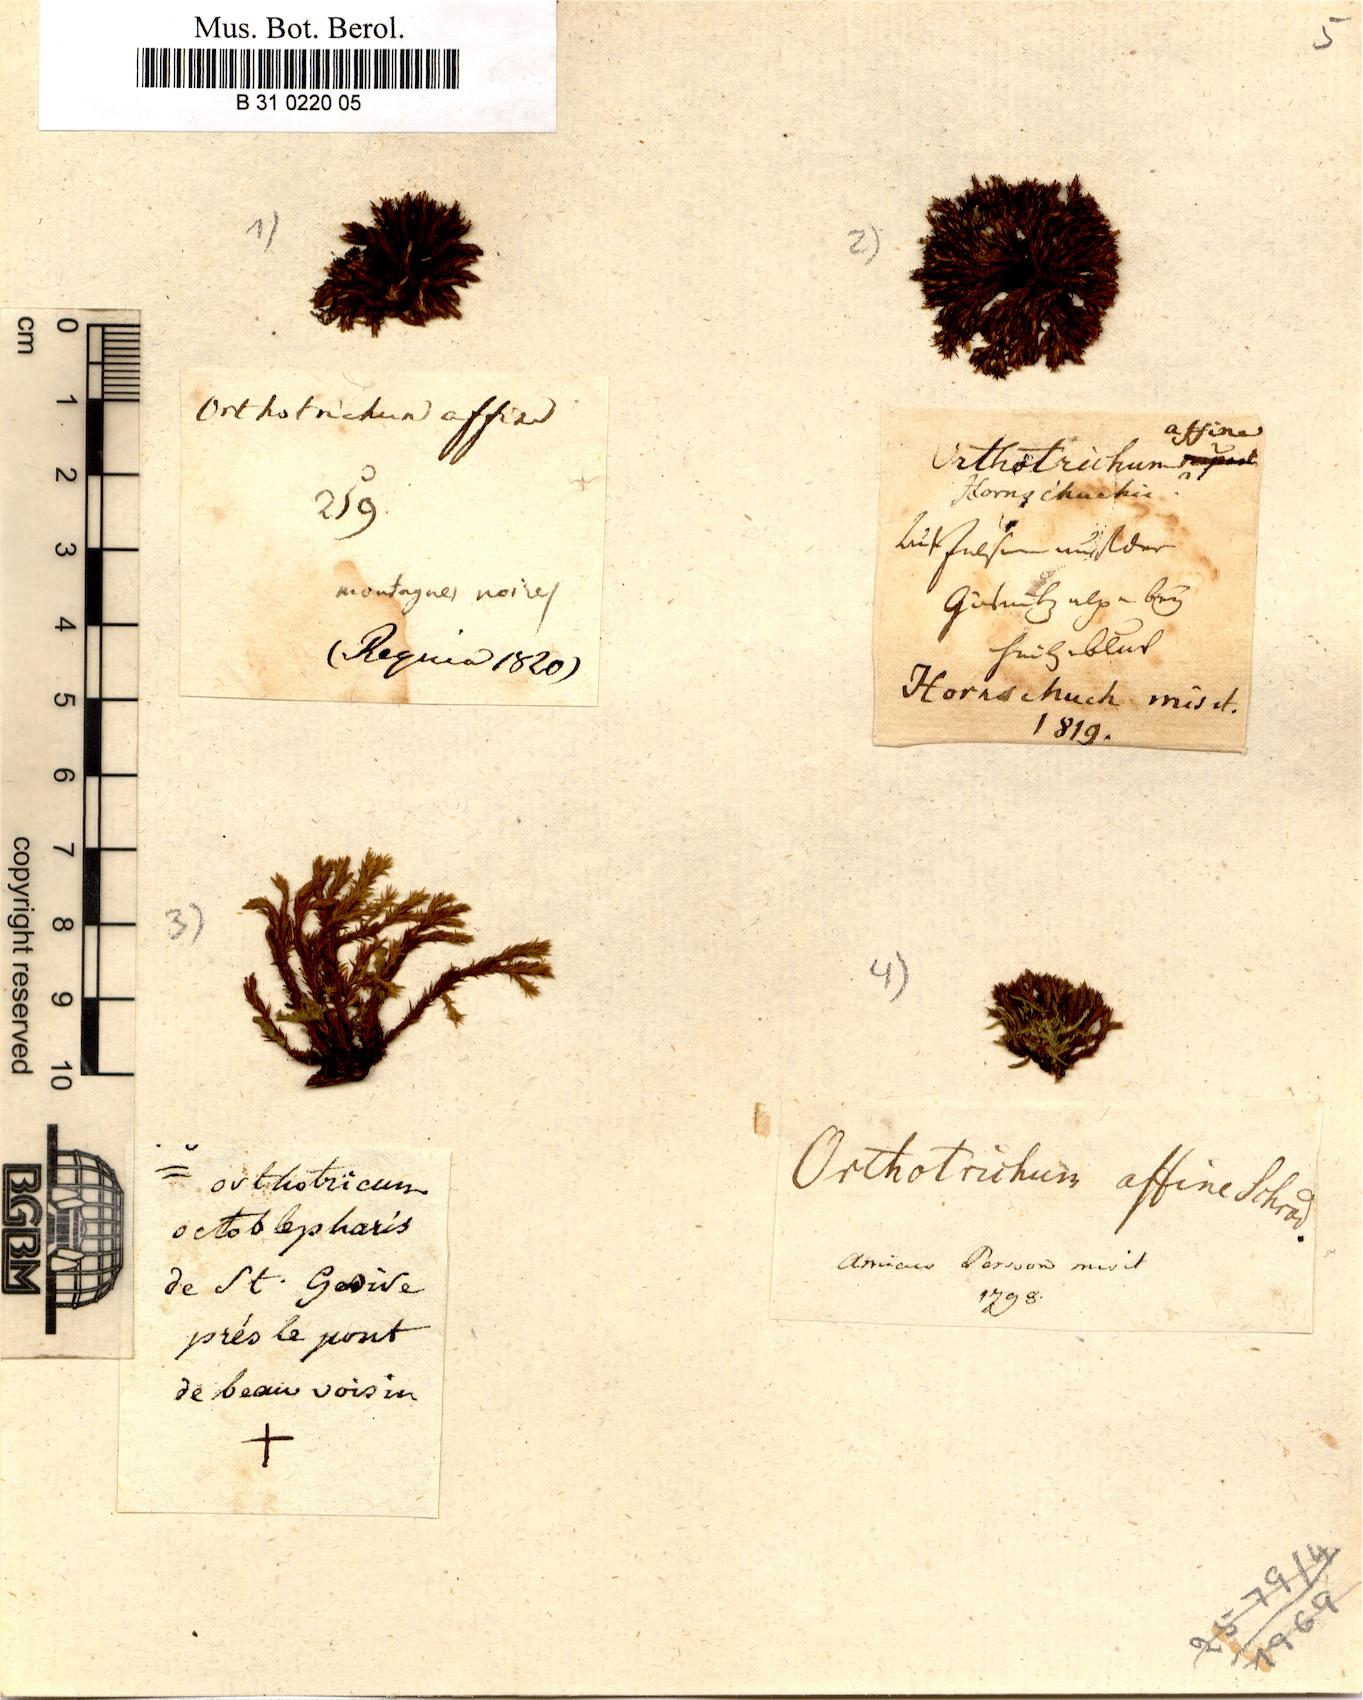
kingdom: Plantae
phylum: Bryophyta
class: Bryopsida
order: Orthotrichales
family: Orthotrichaceae
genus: Lewinskya
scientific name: Lewinskya affinis
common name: Wood bristle-moss
